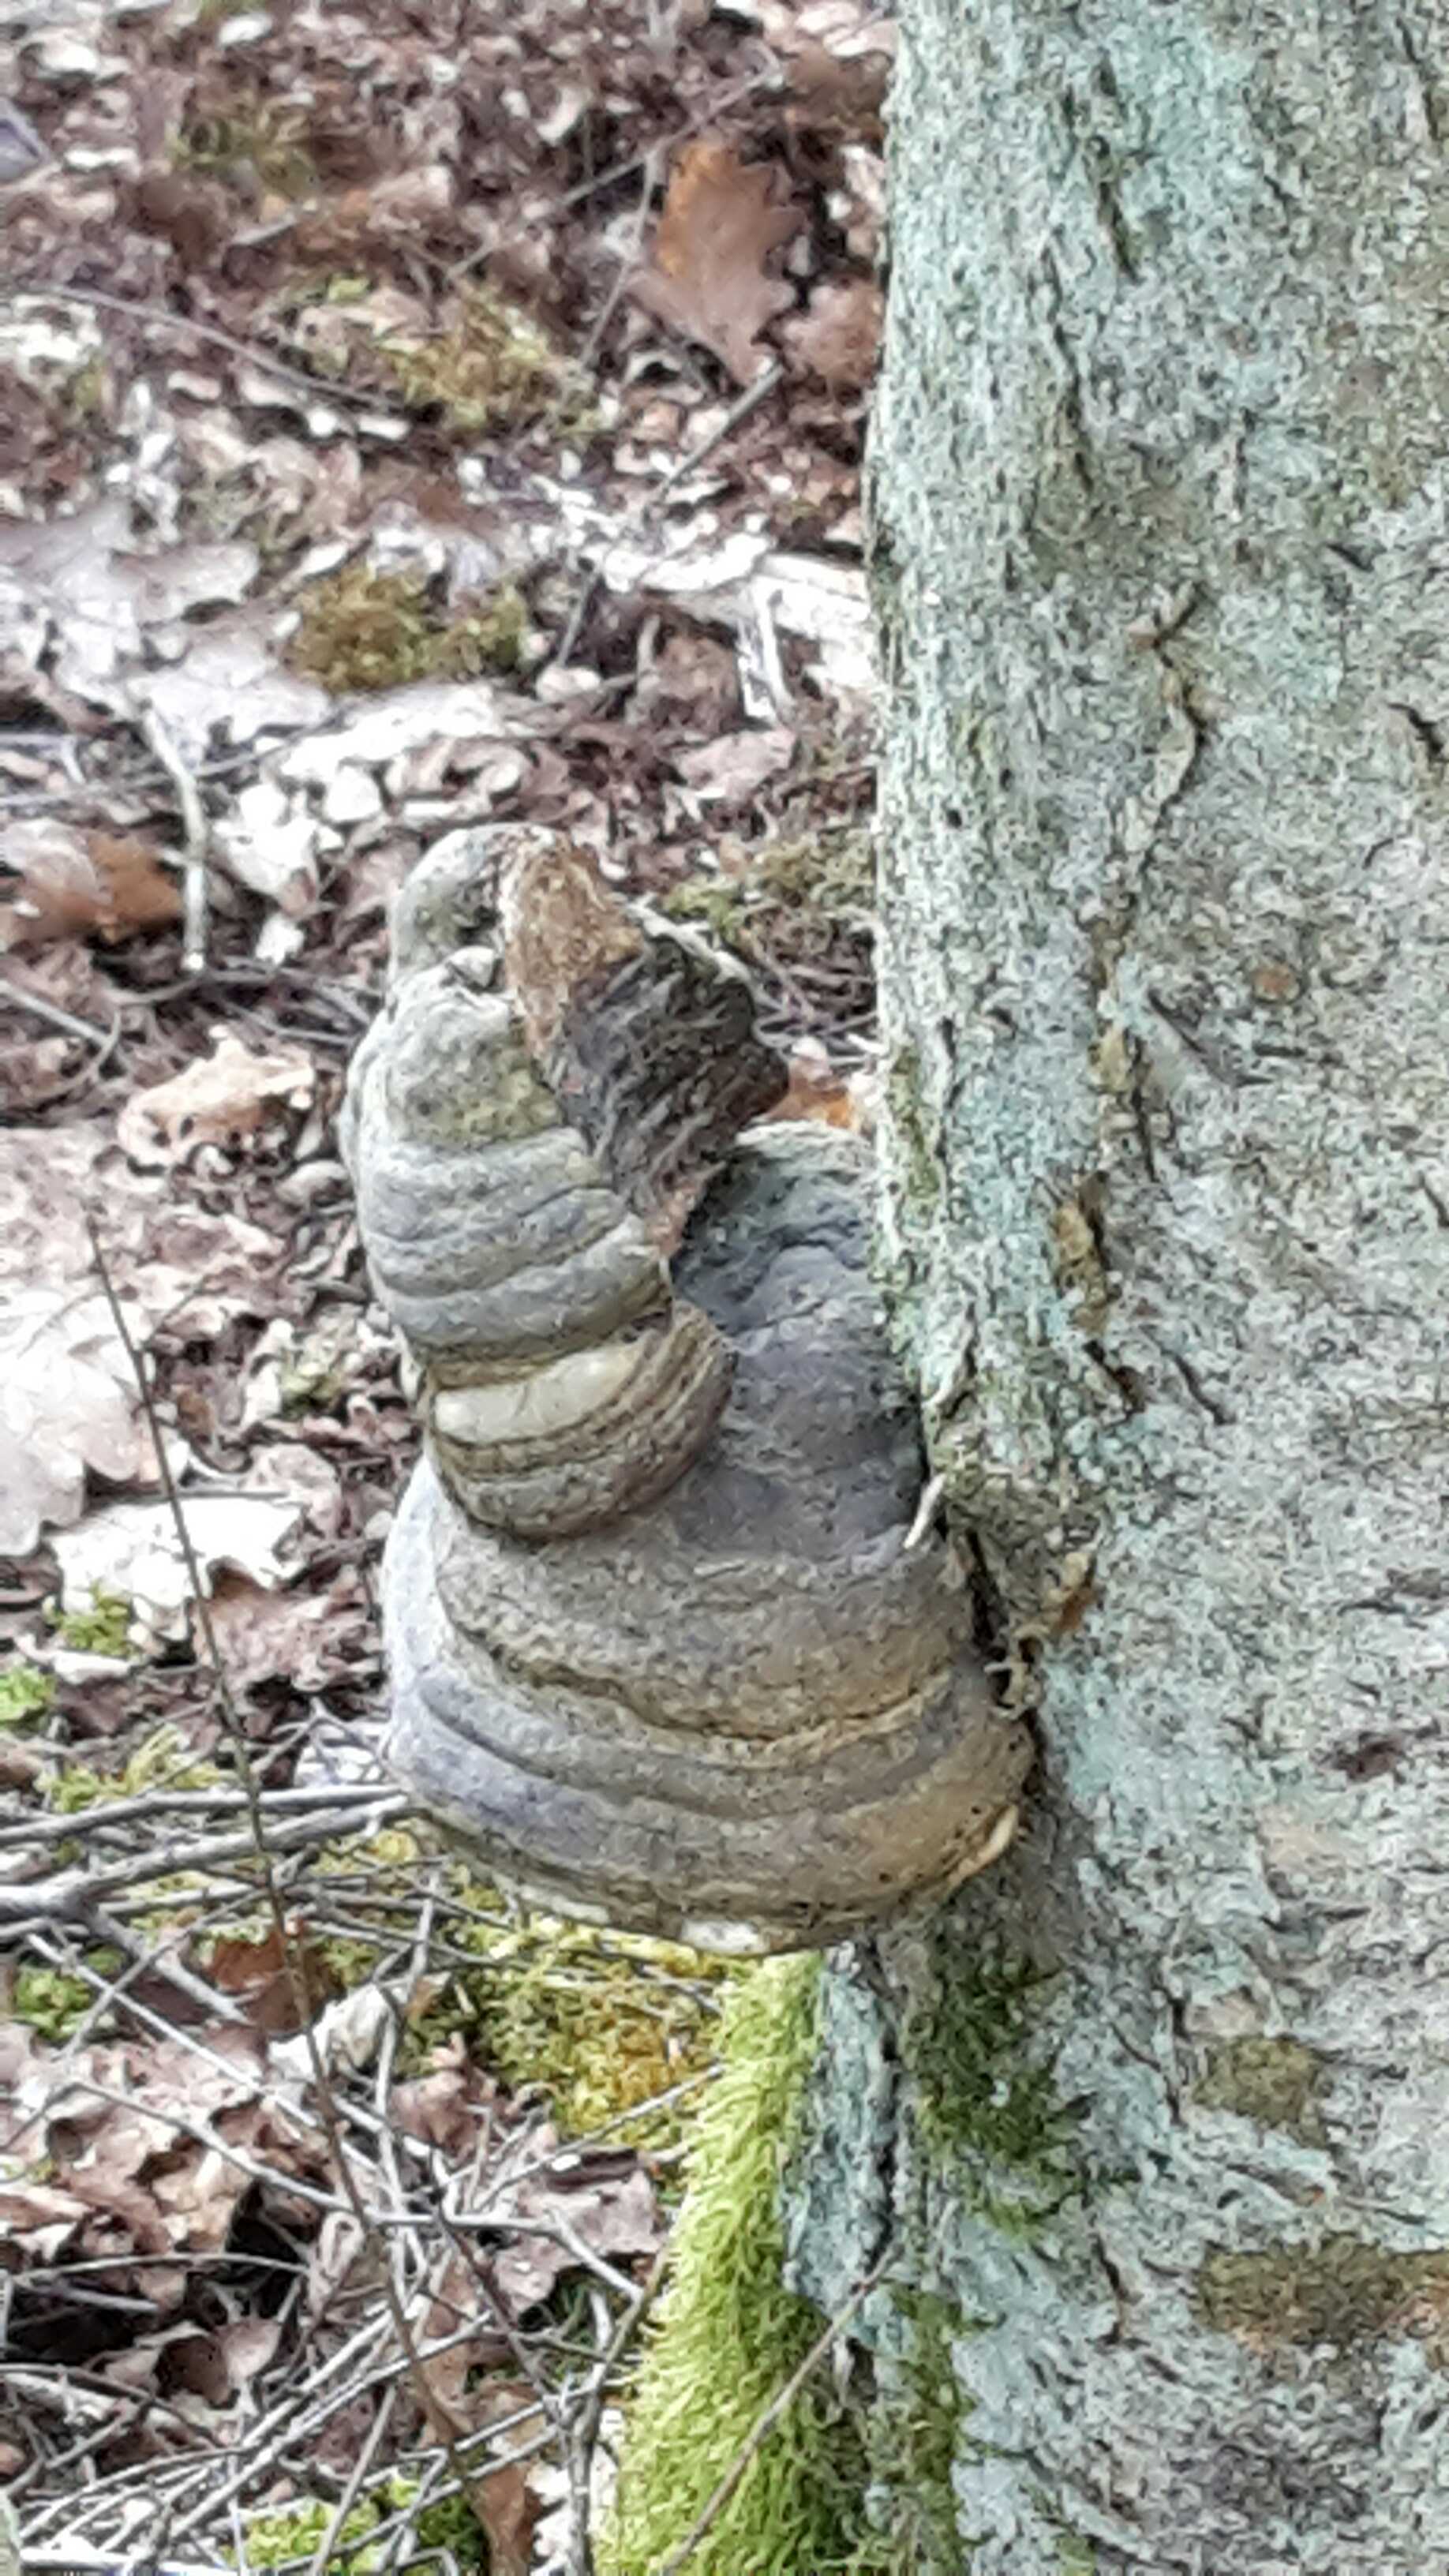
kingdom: Fungi
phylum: Basidiomycota
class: Agaricomycetes
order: Polyporales
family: Polyporaceae
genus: Fomes
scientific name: Fomes fomentarius
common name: tøndersvamp
